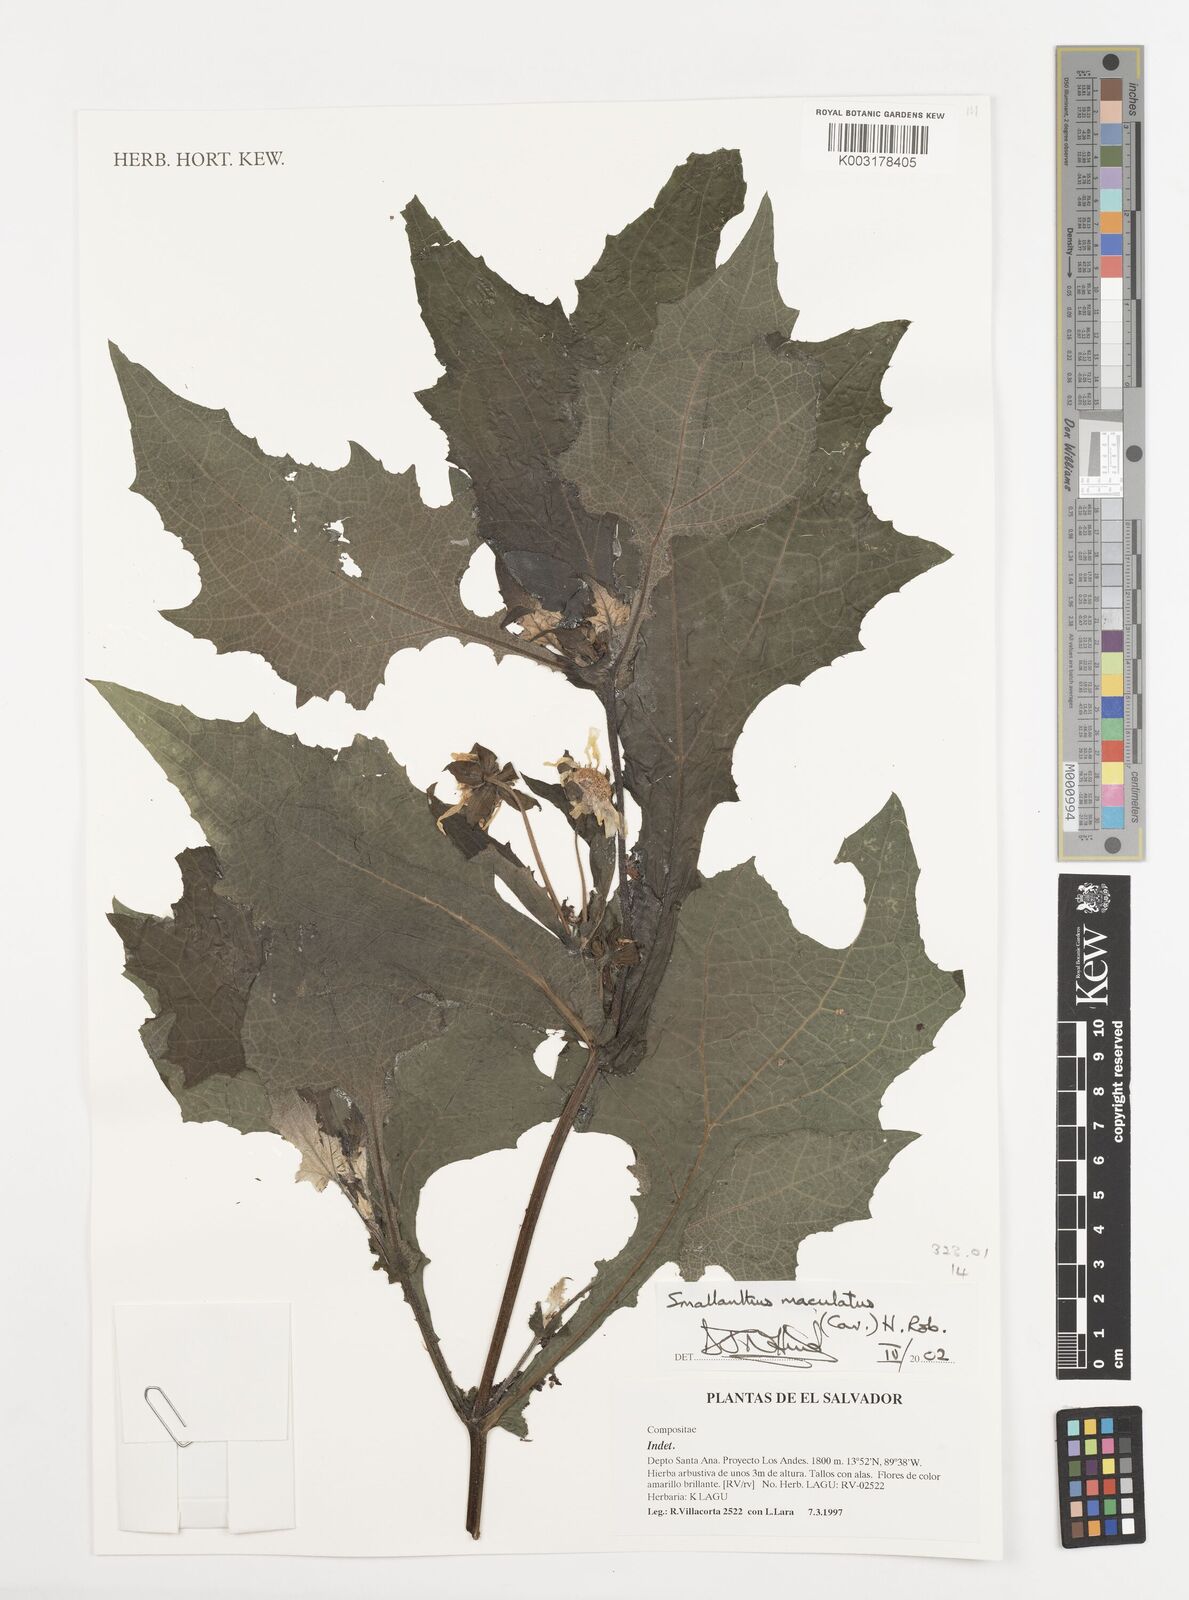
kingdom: Plantae
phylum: Tracheophyta
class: Magnoliopsida
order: Asterales
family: Asteraceae
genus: Smallanthus
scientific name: Smallanthus maculatus
